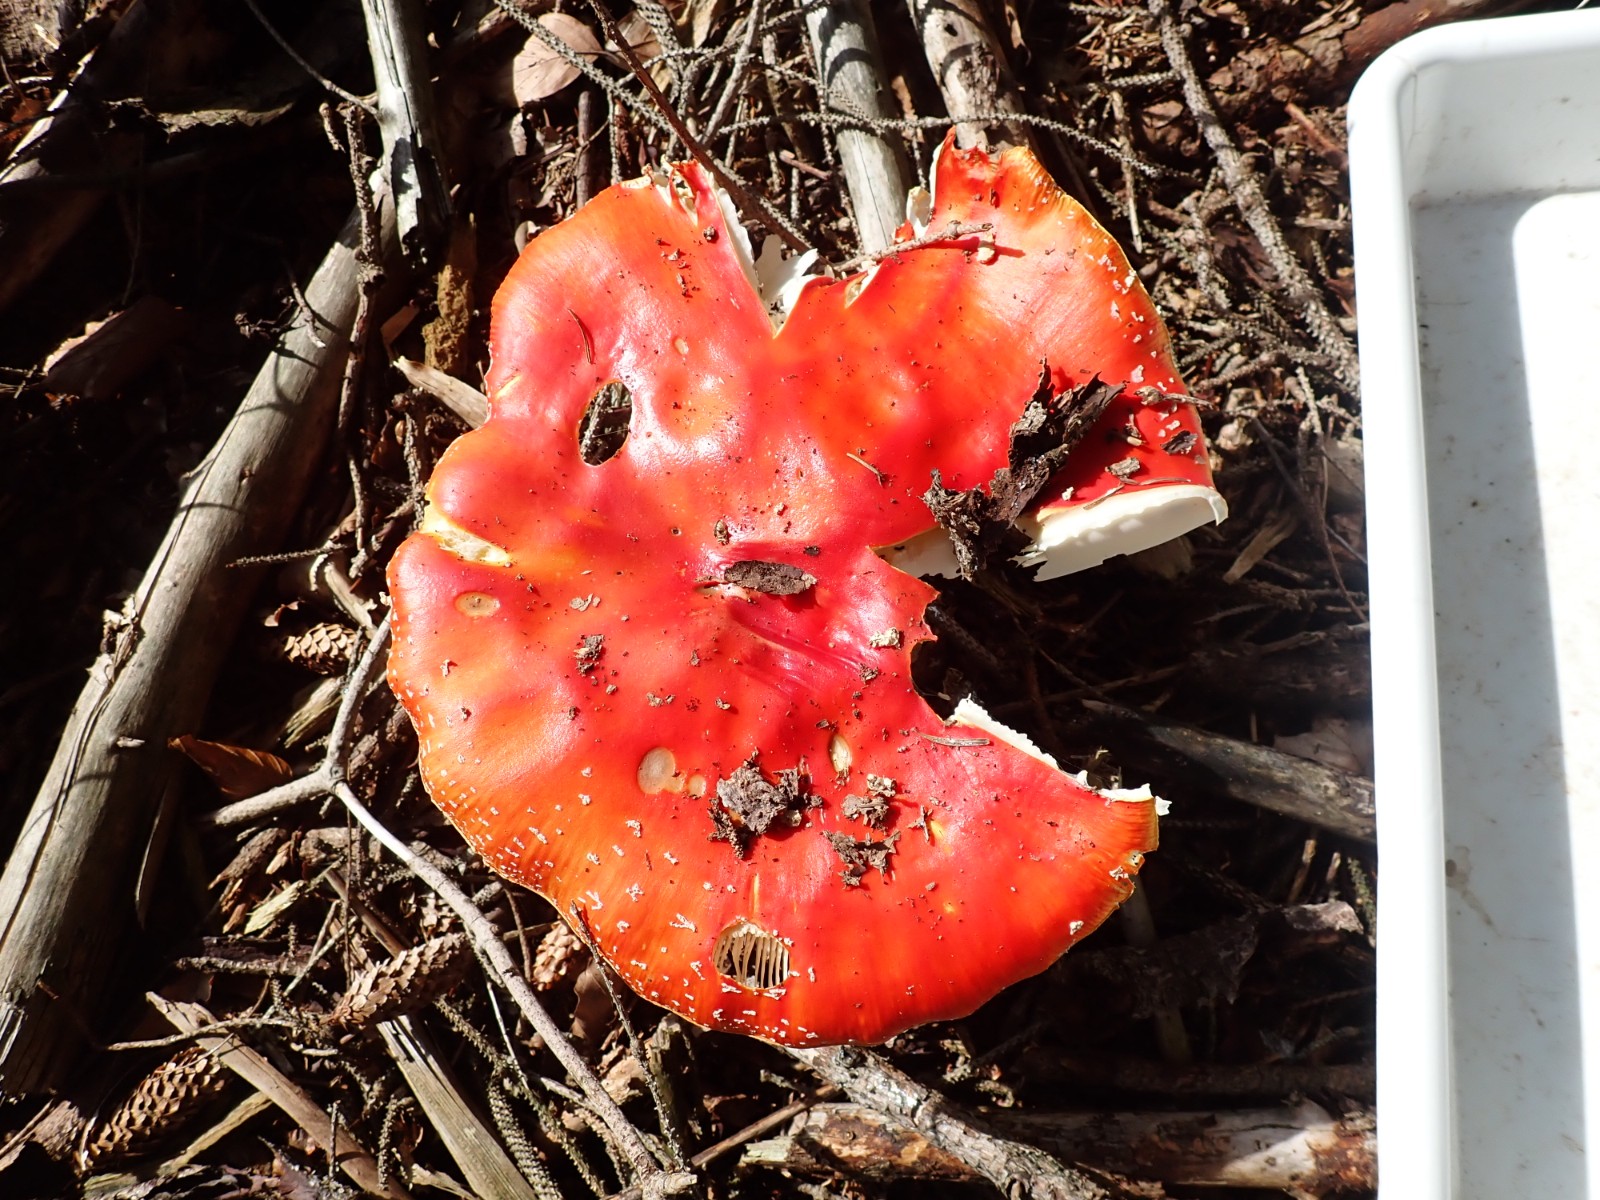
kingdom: Fungi
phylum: Basidiomycota
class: Agaricomycetes
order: Agaricales
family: Amanitaceae
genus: Amanita
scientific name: Amanita muscaria
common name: rød fluesvamp
